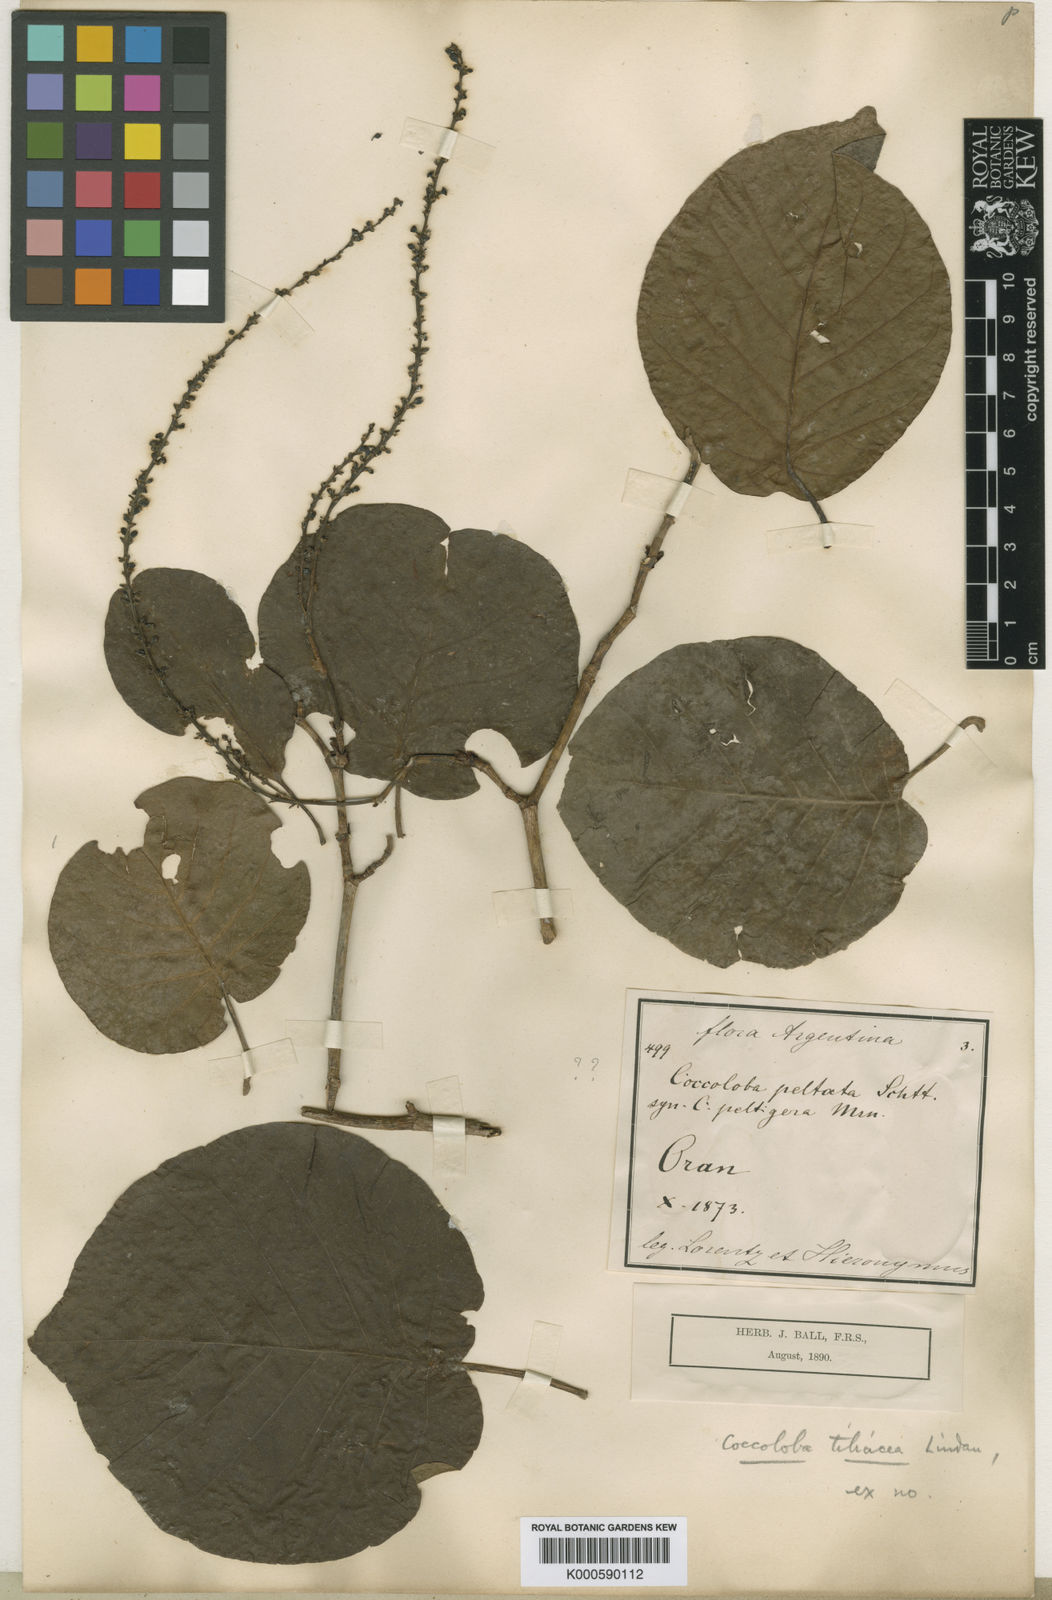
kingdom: Plantae
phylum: Tracheophyta
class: Magnoliopsida
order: Caryophyllales
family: Polygonaceae
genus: Coccoloba
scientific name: Coccoloba tiliacea
